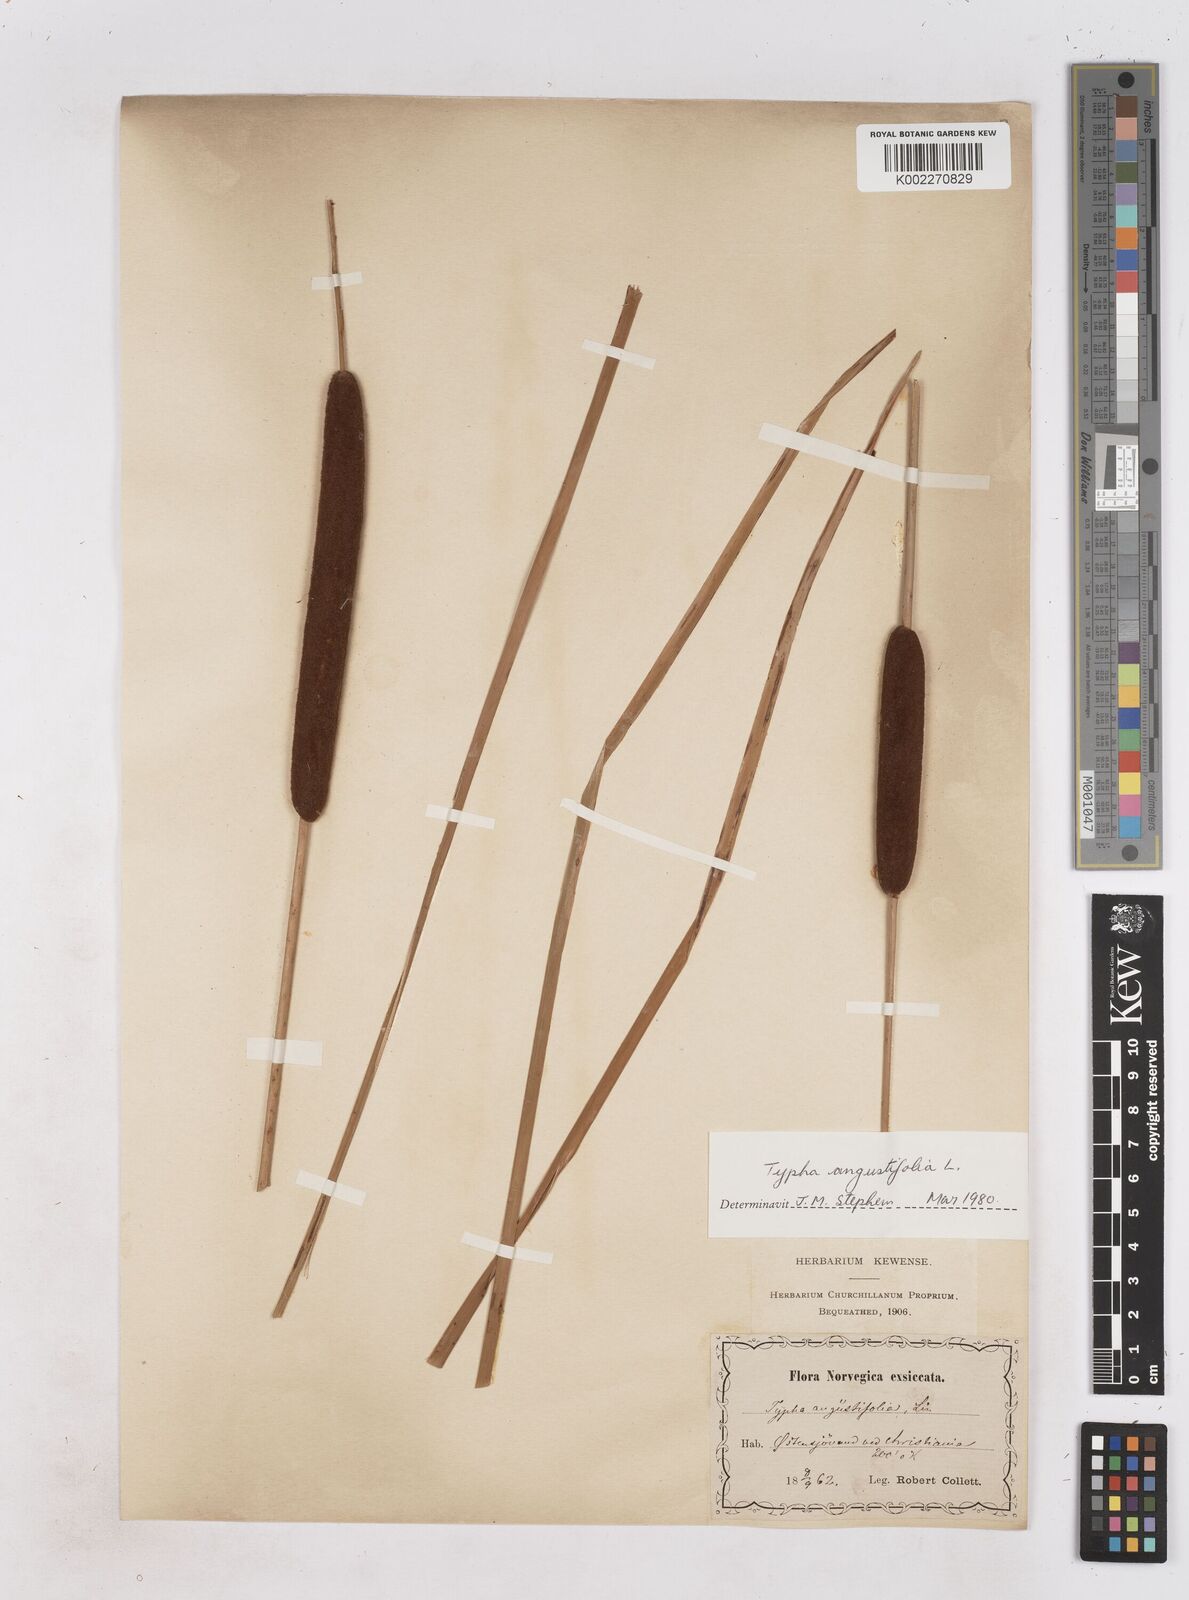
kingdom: Plantae
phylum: Tracheophyta
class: Liliopsida
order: Poales
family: Typhaceae
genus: Typha
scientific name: Typha angustifolia
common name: Lesser bulrush
